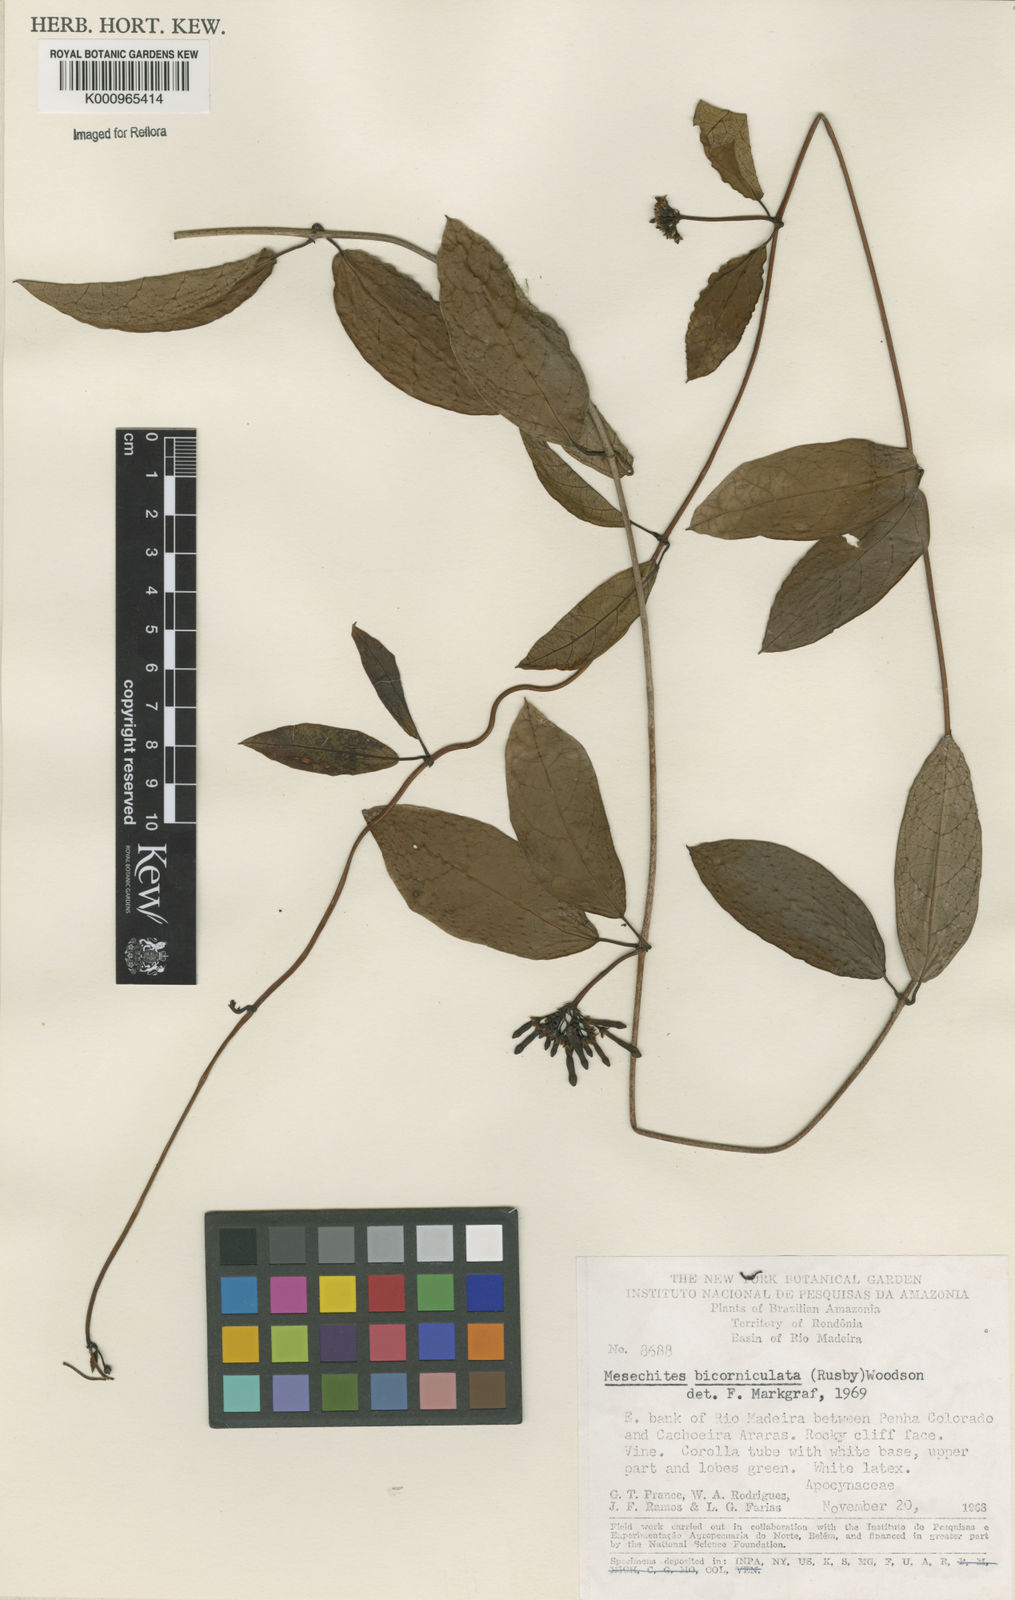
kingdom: Plantae
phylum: Tracheophyta
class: Magnoliopsida
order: Gentianales
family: Apocynaceae
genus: Mesechites
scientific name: Mesechites
